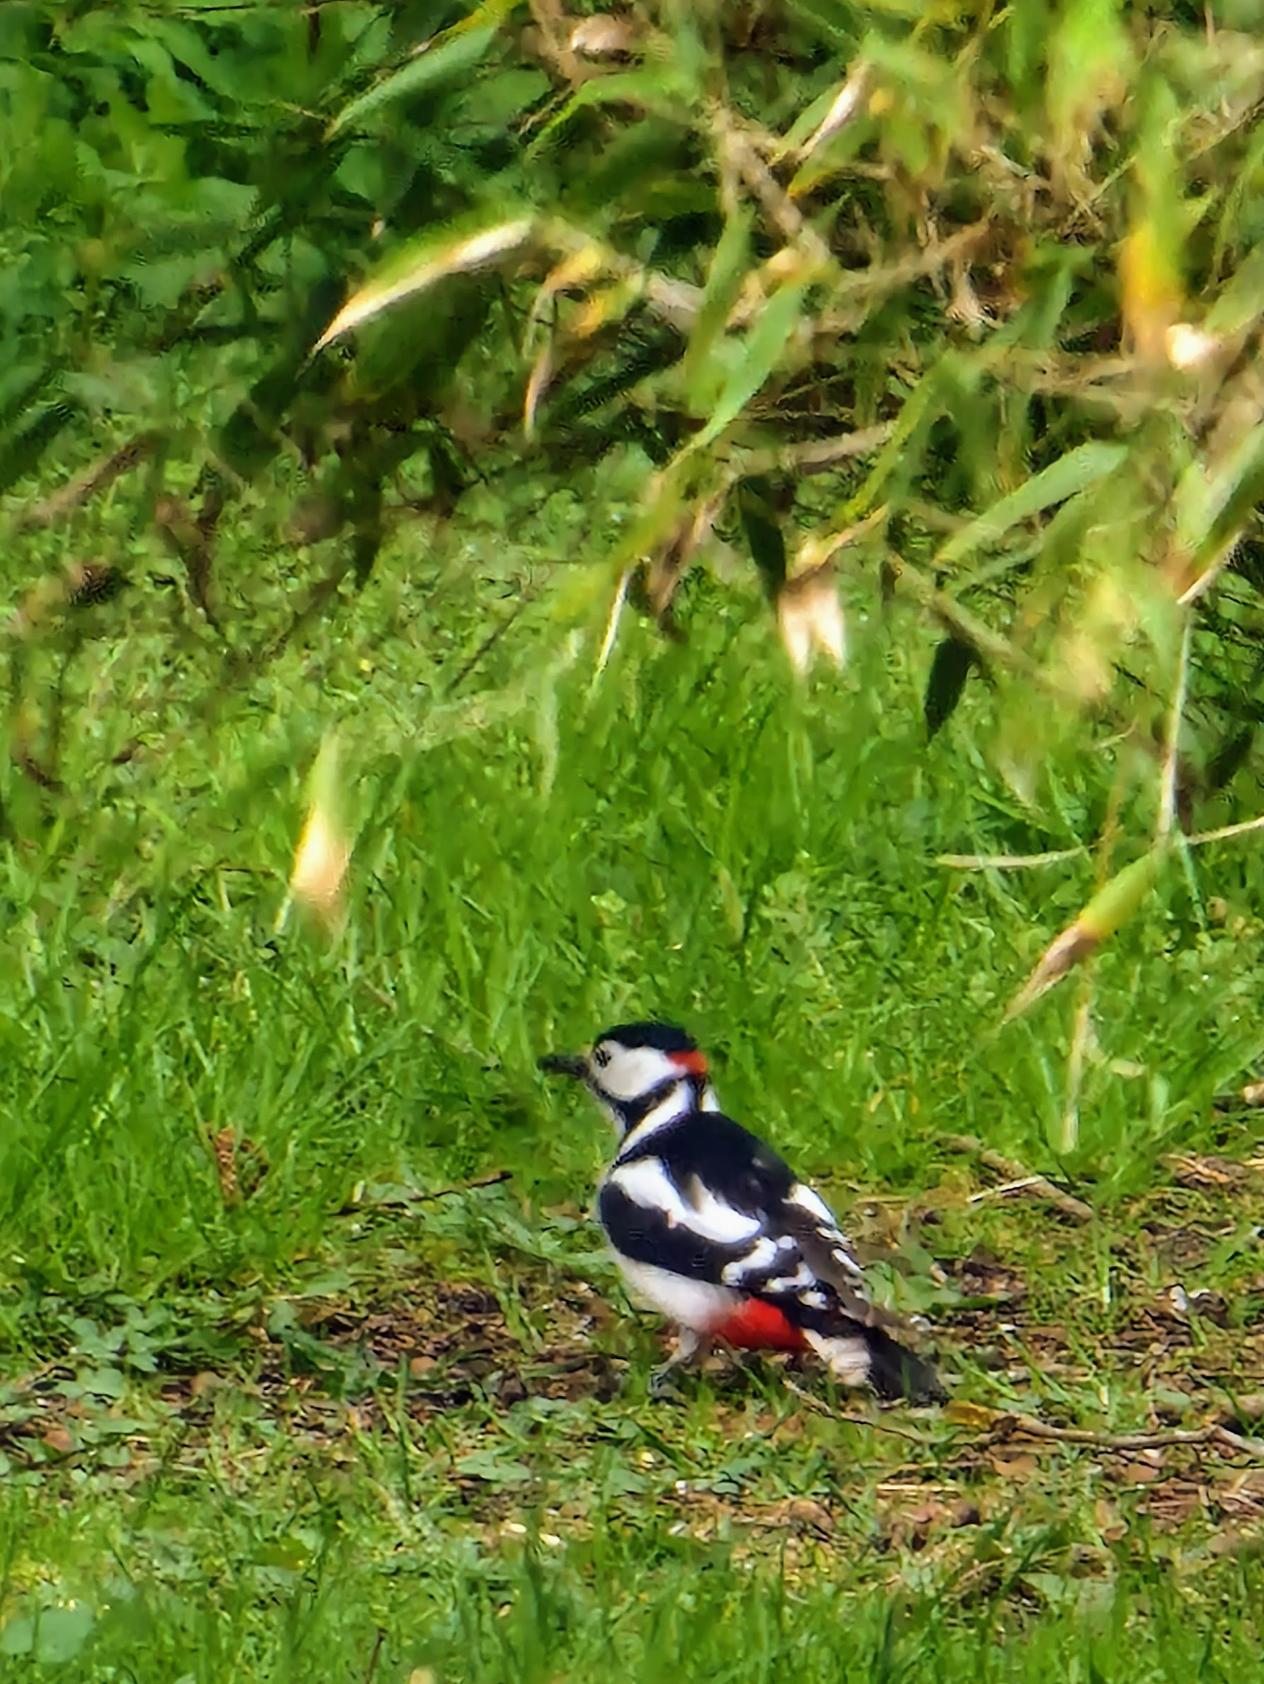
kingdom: Animalia
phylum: Chordata
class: Aves
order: Piciformes
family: Picidae
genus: Dendrocopos
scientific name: Dendrocopos major
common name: Stor flagspætte
